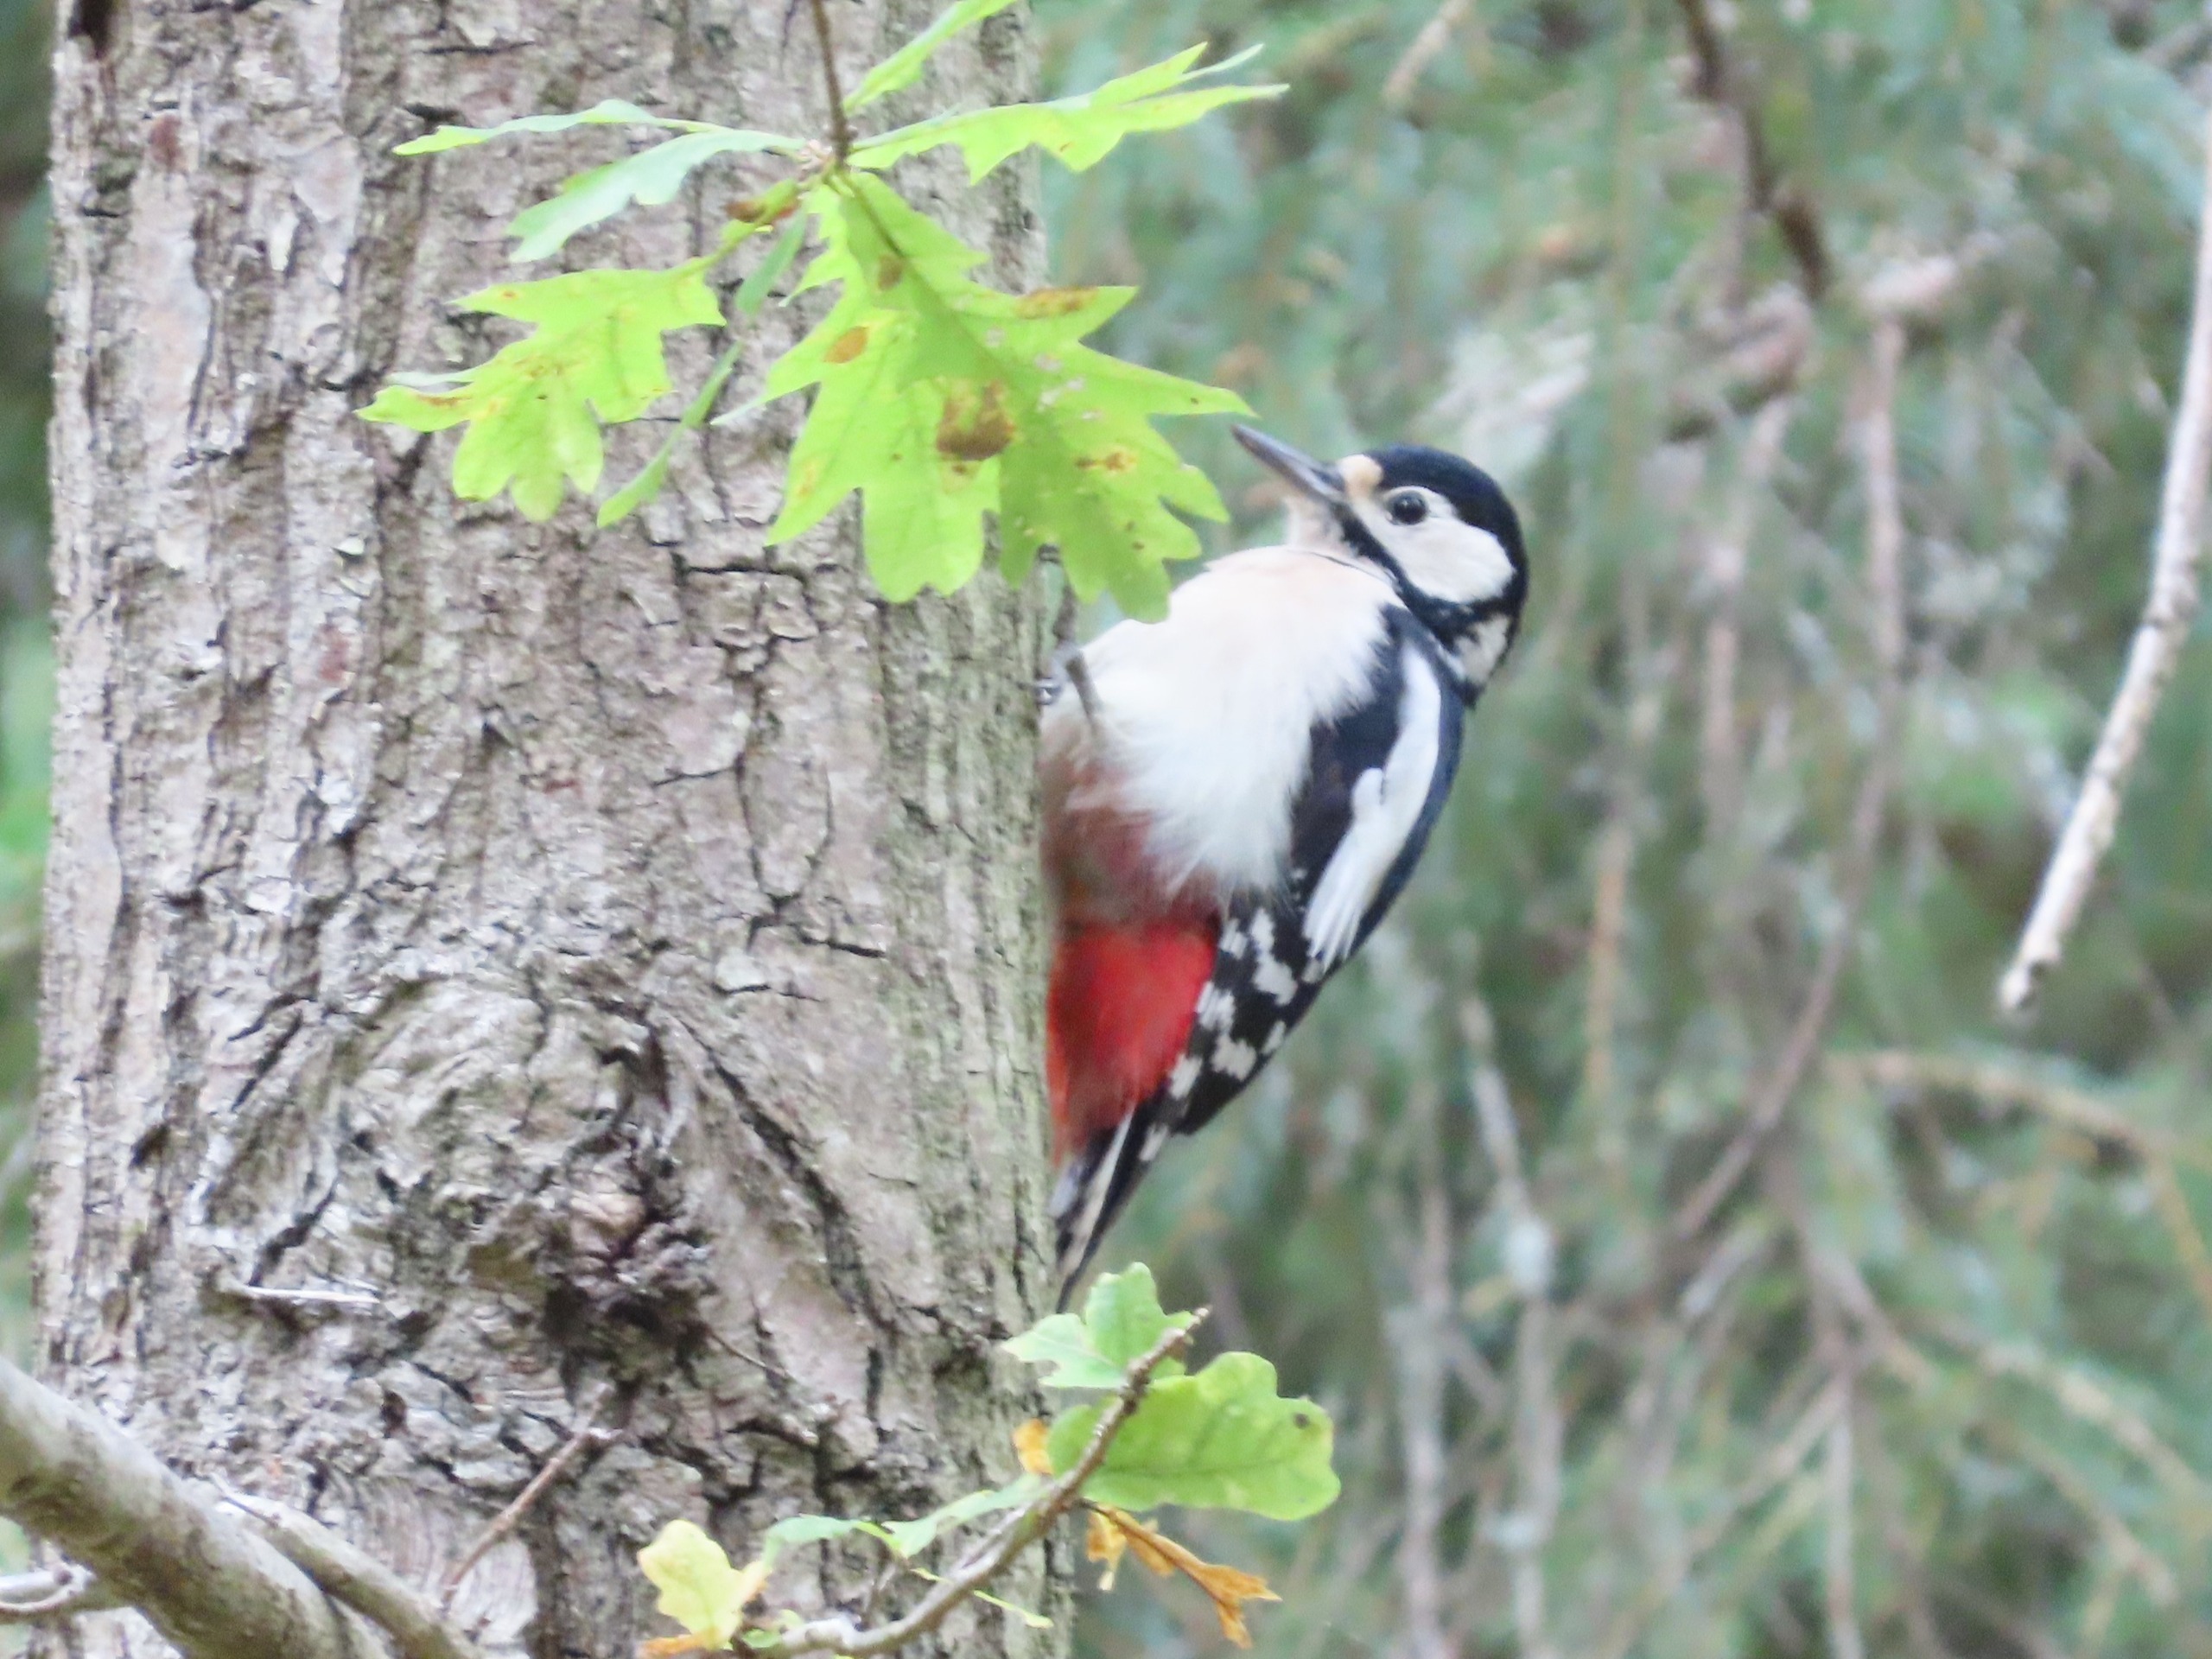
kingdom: Animalia
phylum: Chordata
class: Aves
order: Piciformes
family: Picidae
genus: Dendrocopos
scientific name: Dendrocopos major
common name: Stor flagspætte
